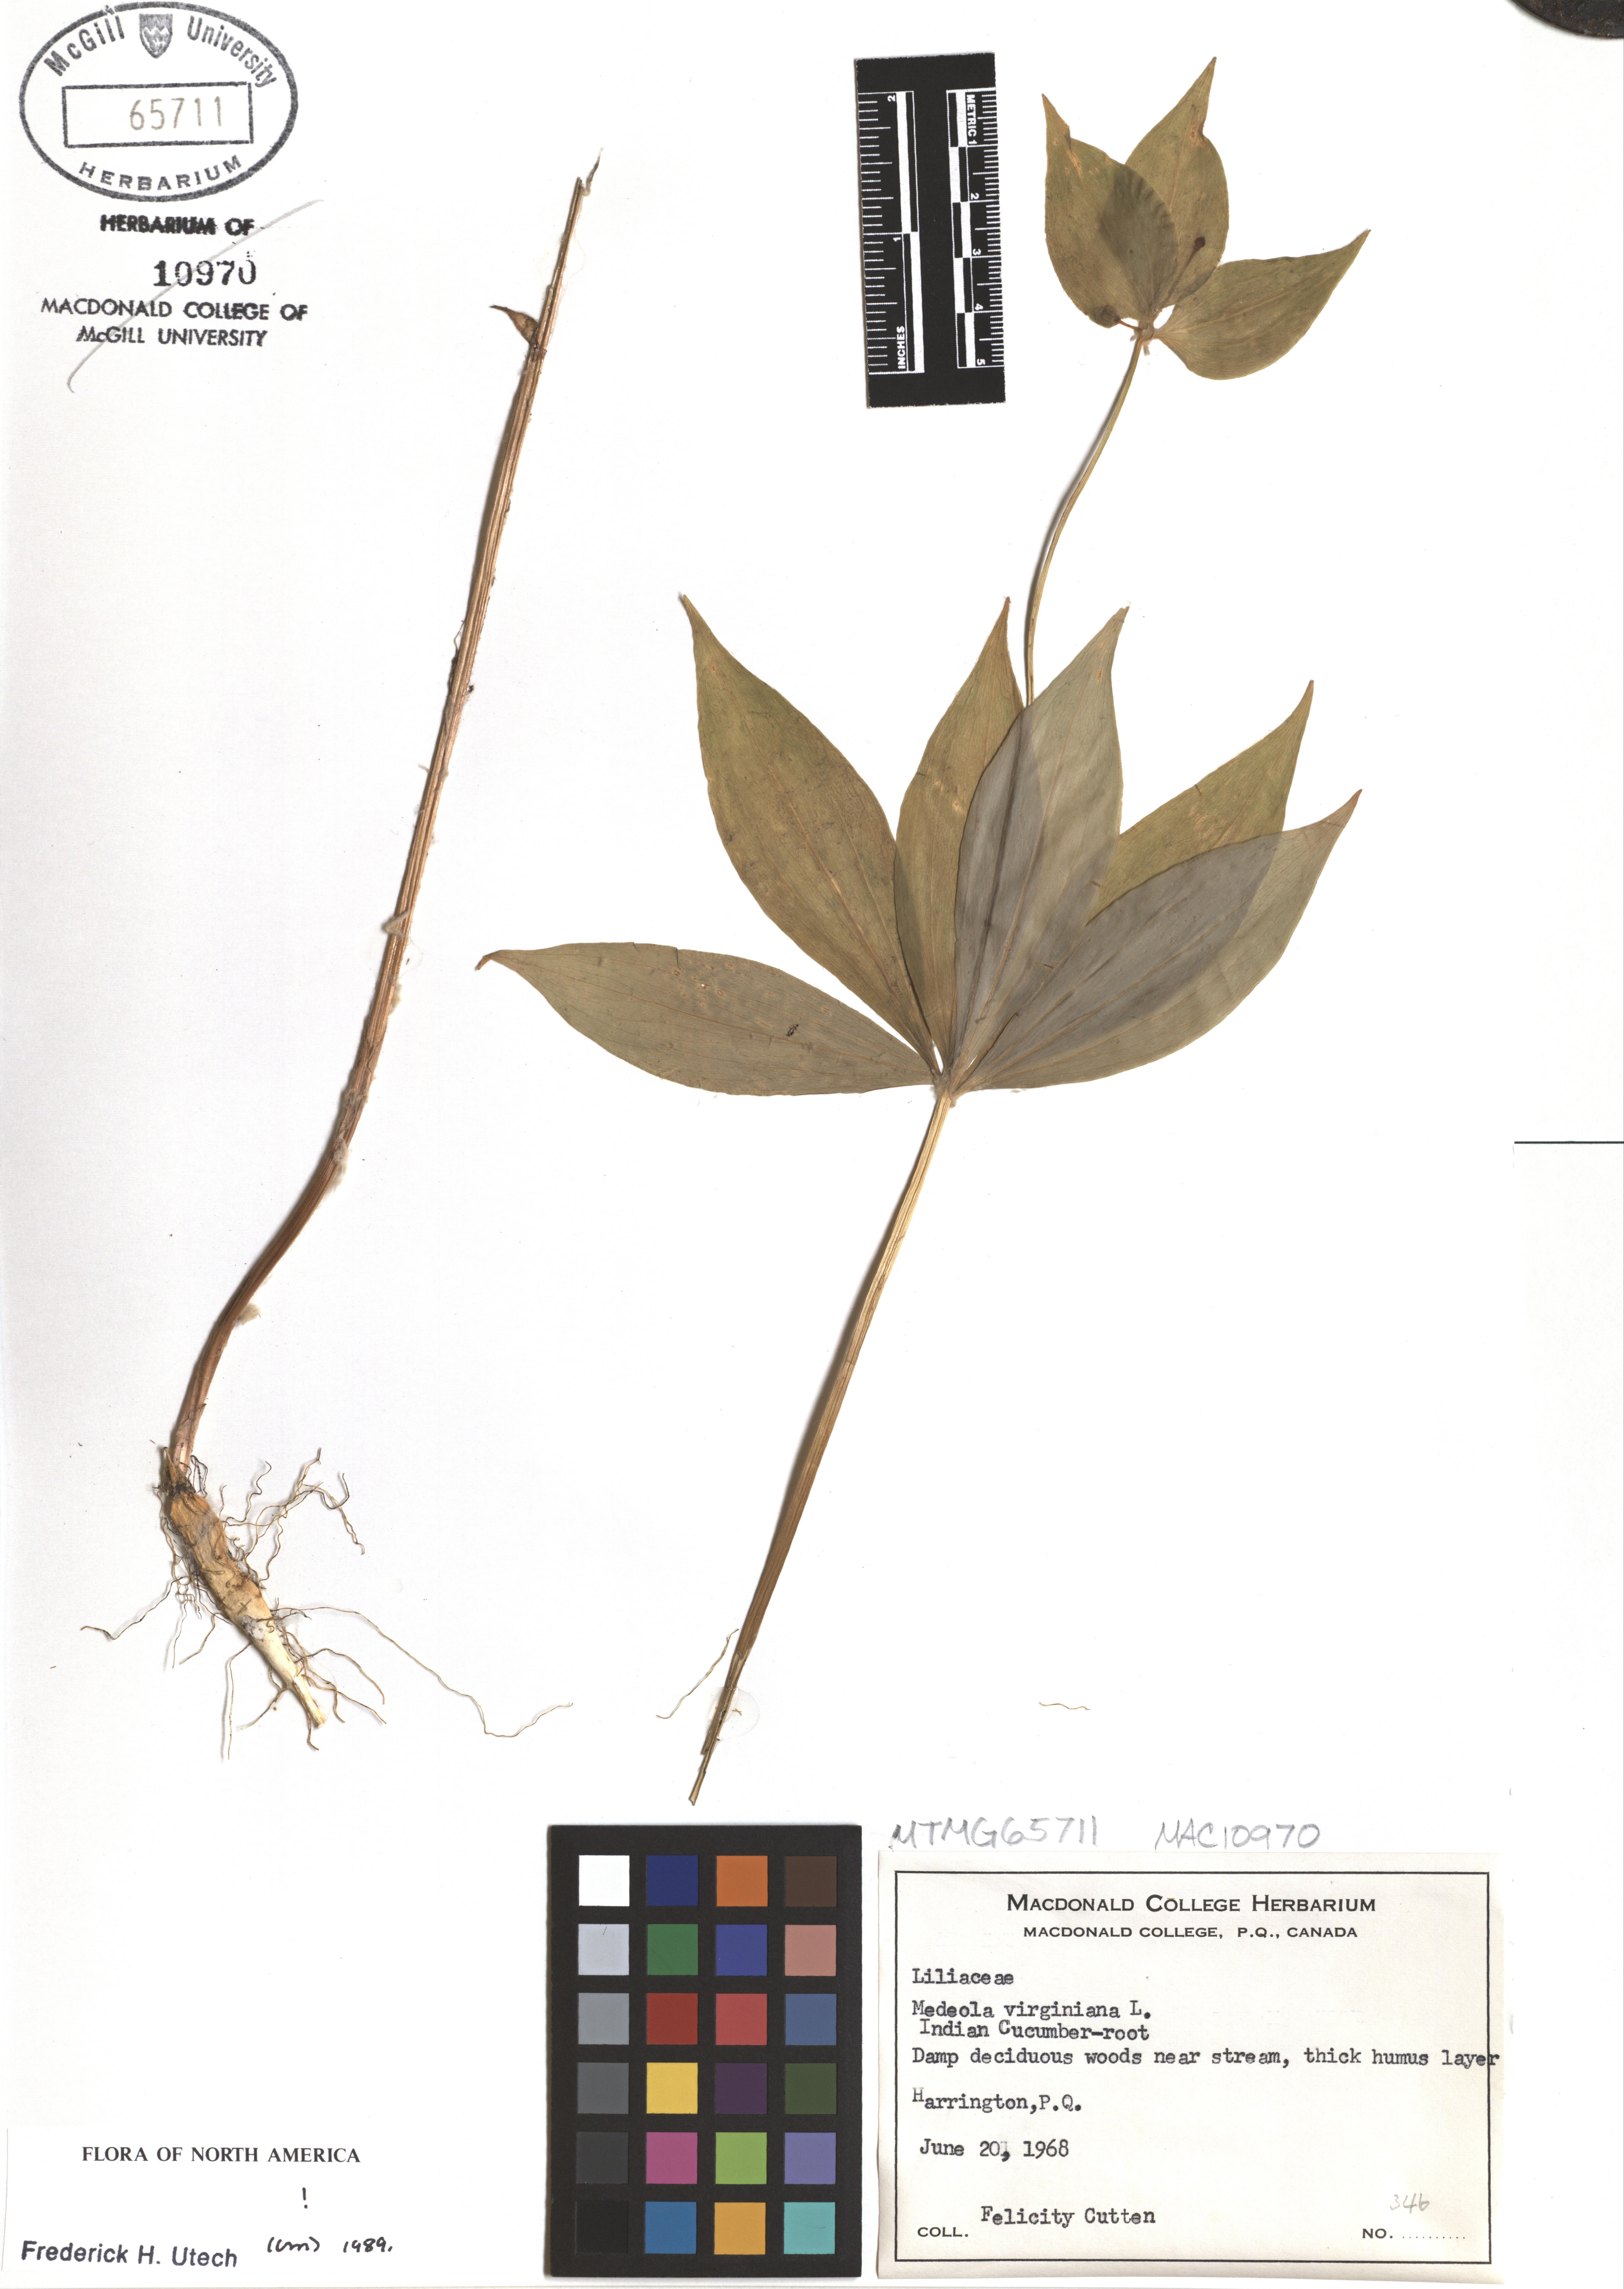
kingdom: Plantae
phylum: Tracheophyta
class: Liliopsida
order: Liliales
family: Liliaceae
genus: Medeola
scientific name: Medeola virginiana
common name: Indian cucumber-root
